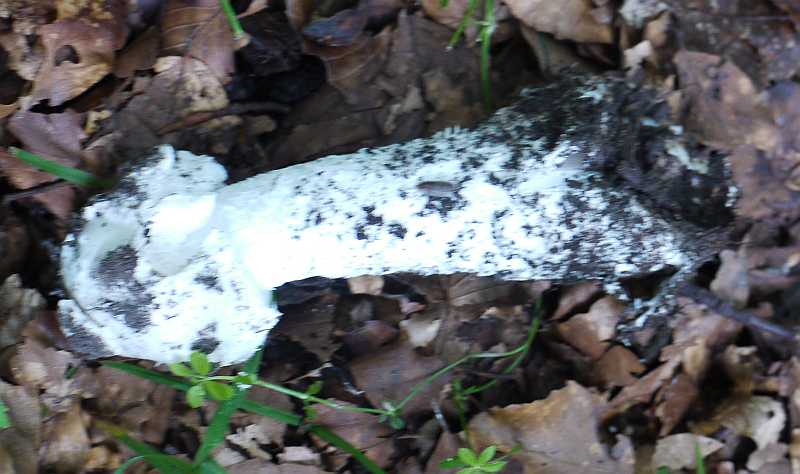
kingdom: Fungi
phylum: Basidiomycota
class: Agaricomycetes
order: Agaricales
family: Amanitaceae
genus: Amanita
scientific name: Amanita
